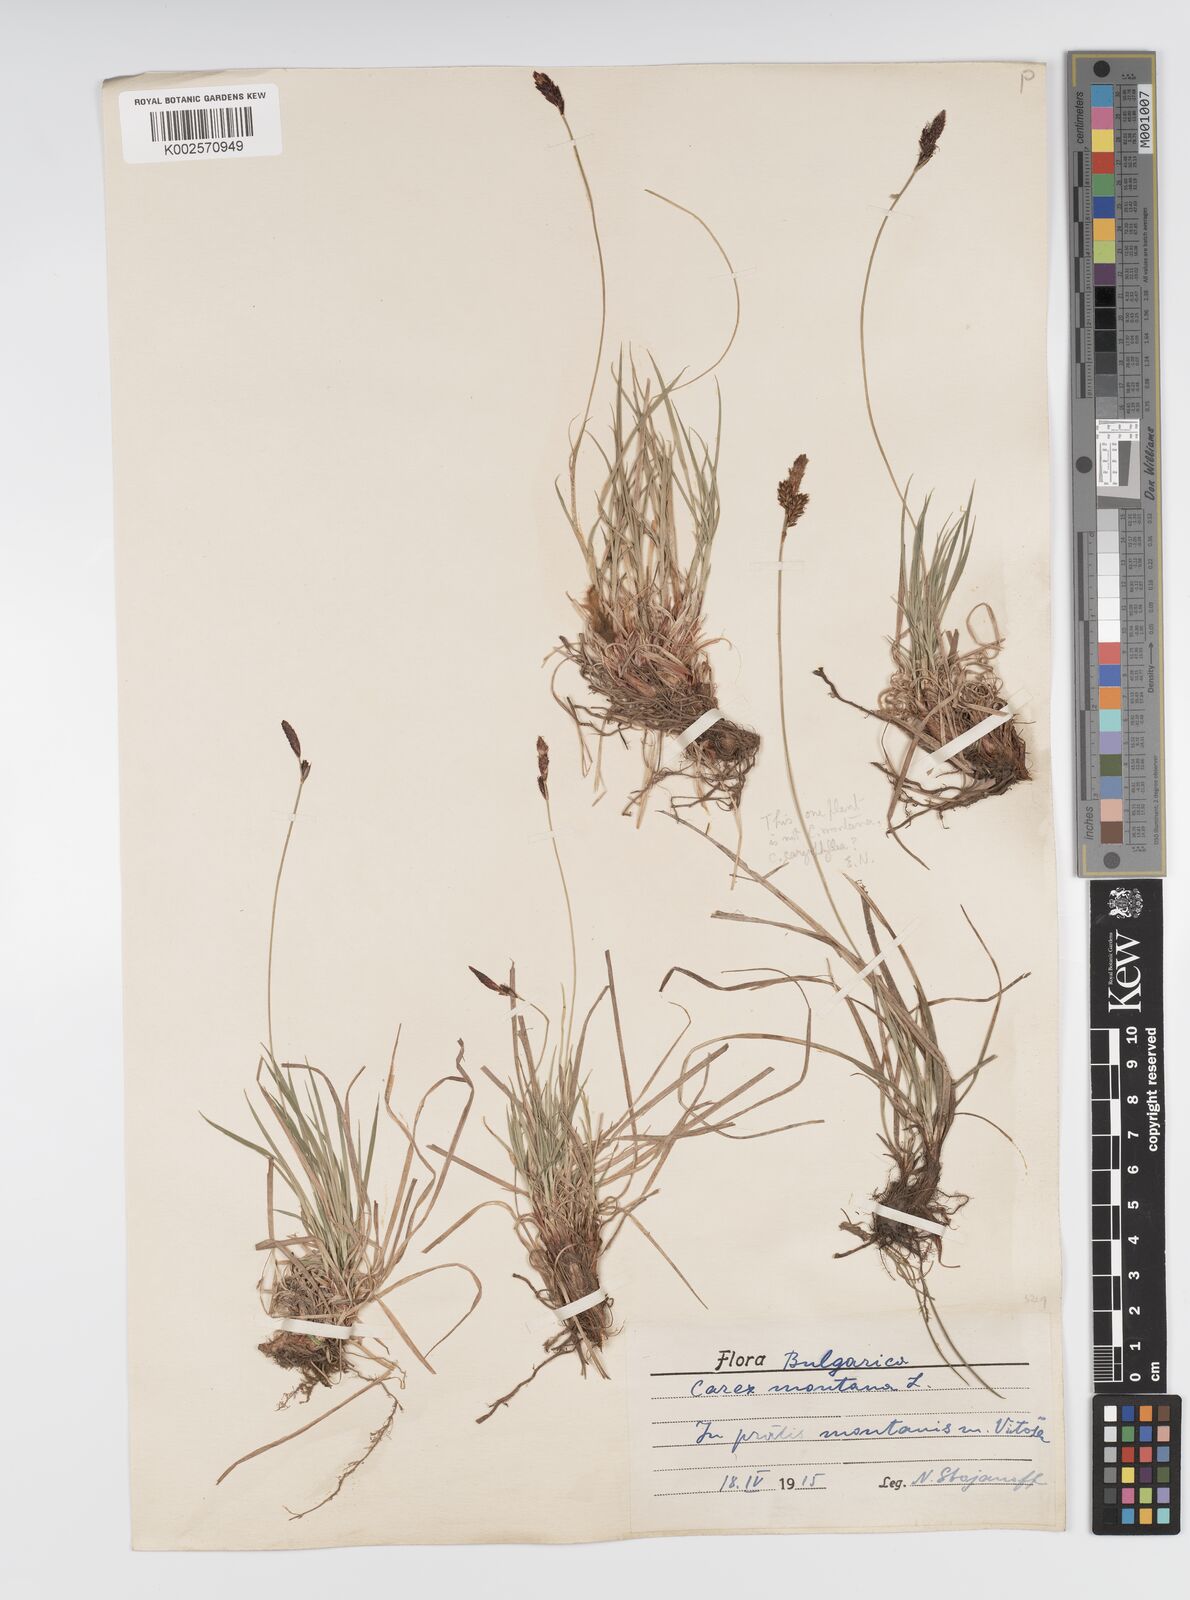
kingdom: Plantae
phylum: Tracheophyta
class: Liliopsida
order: Poales
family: Cyperaceae
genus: Carex
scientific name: Carex montana
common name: Soft-leaved sedge
